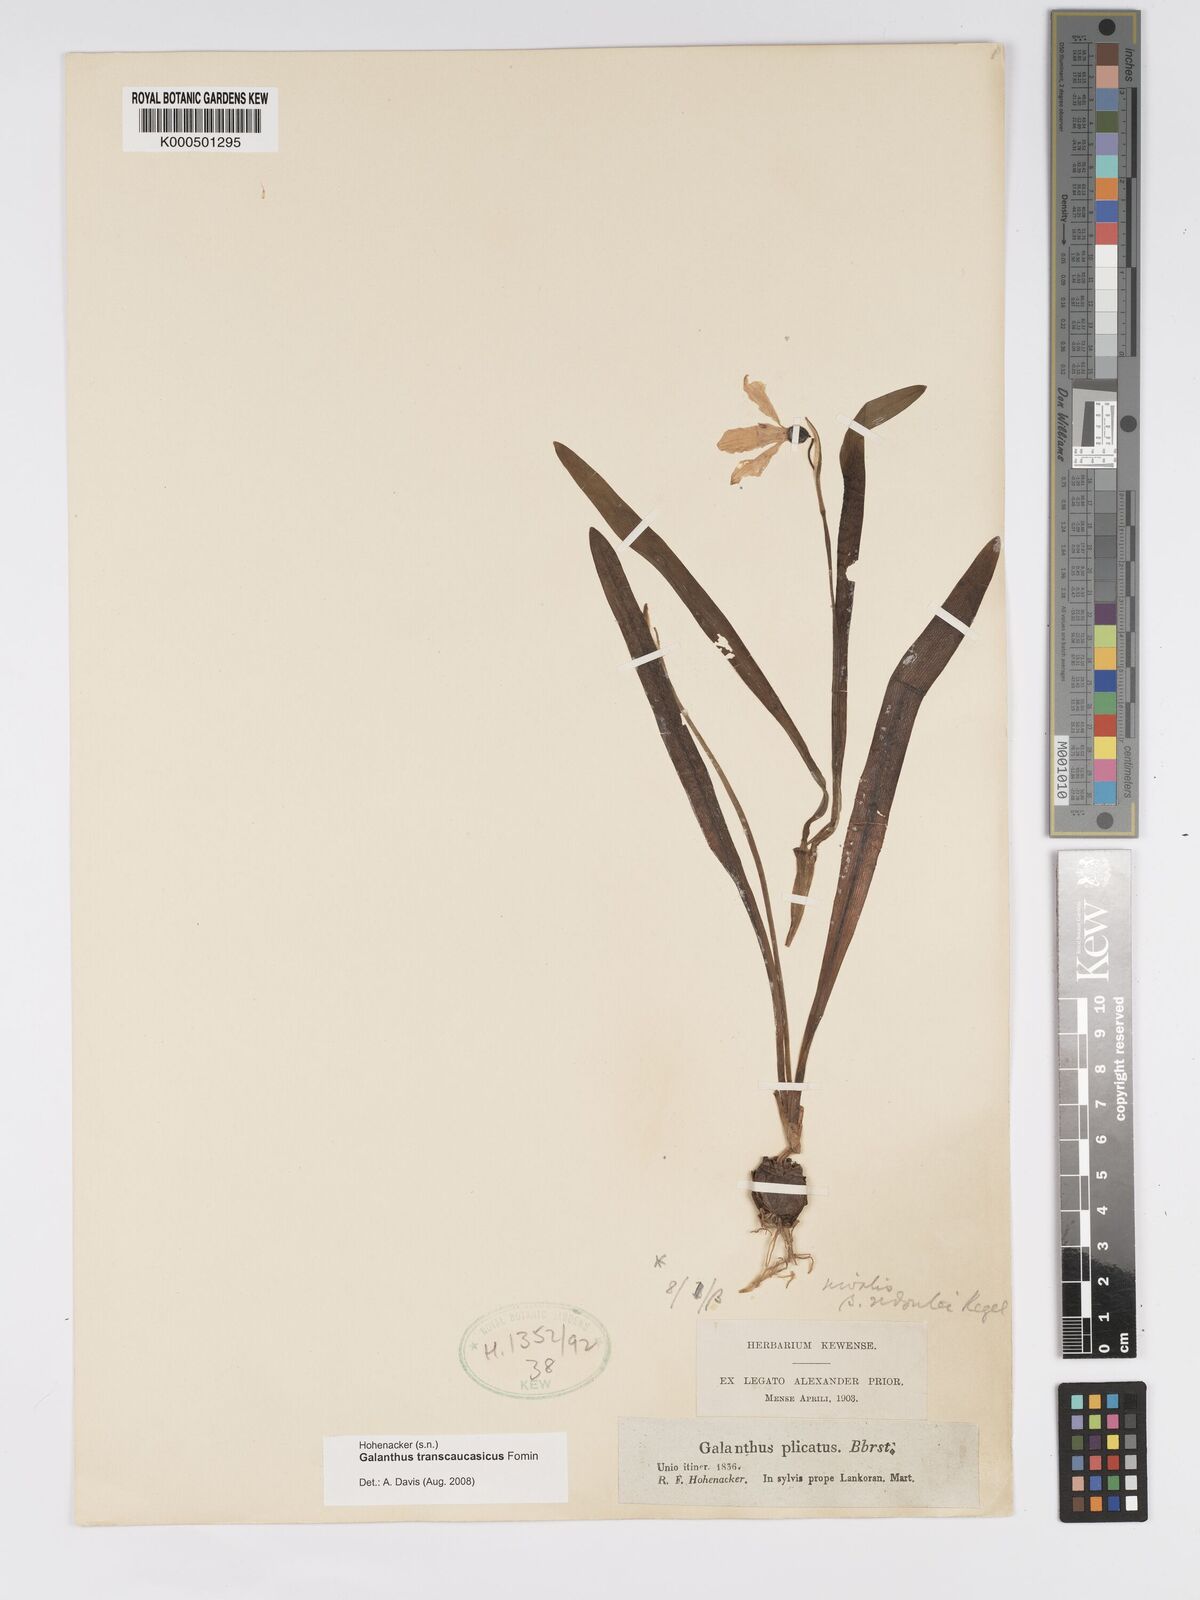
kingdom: Plantae
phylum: Tracheophyta
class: Liliopsida
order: Asparagales
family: Amaryllidaceae
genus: Galanthus
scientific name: Galanthus transcaucasicus
